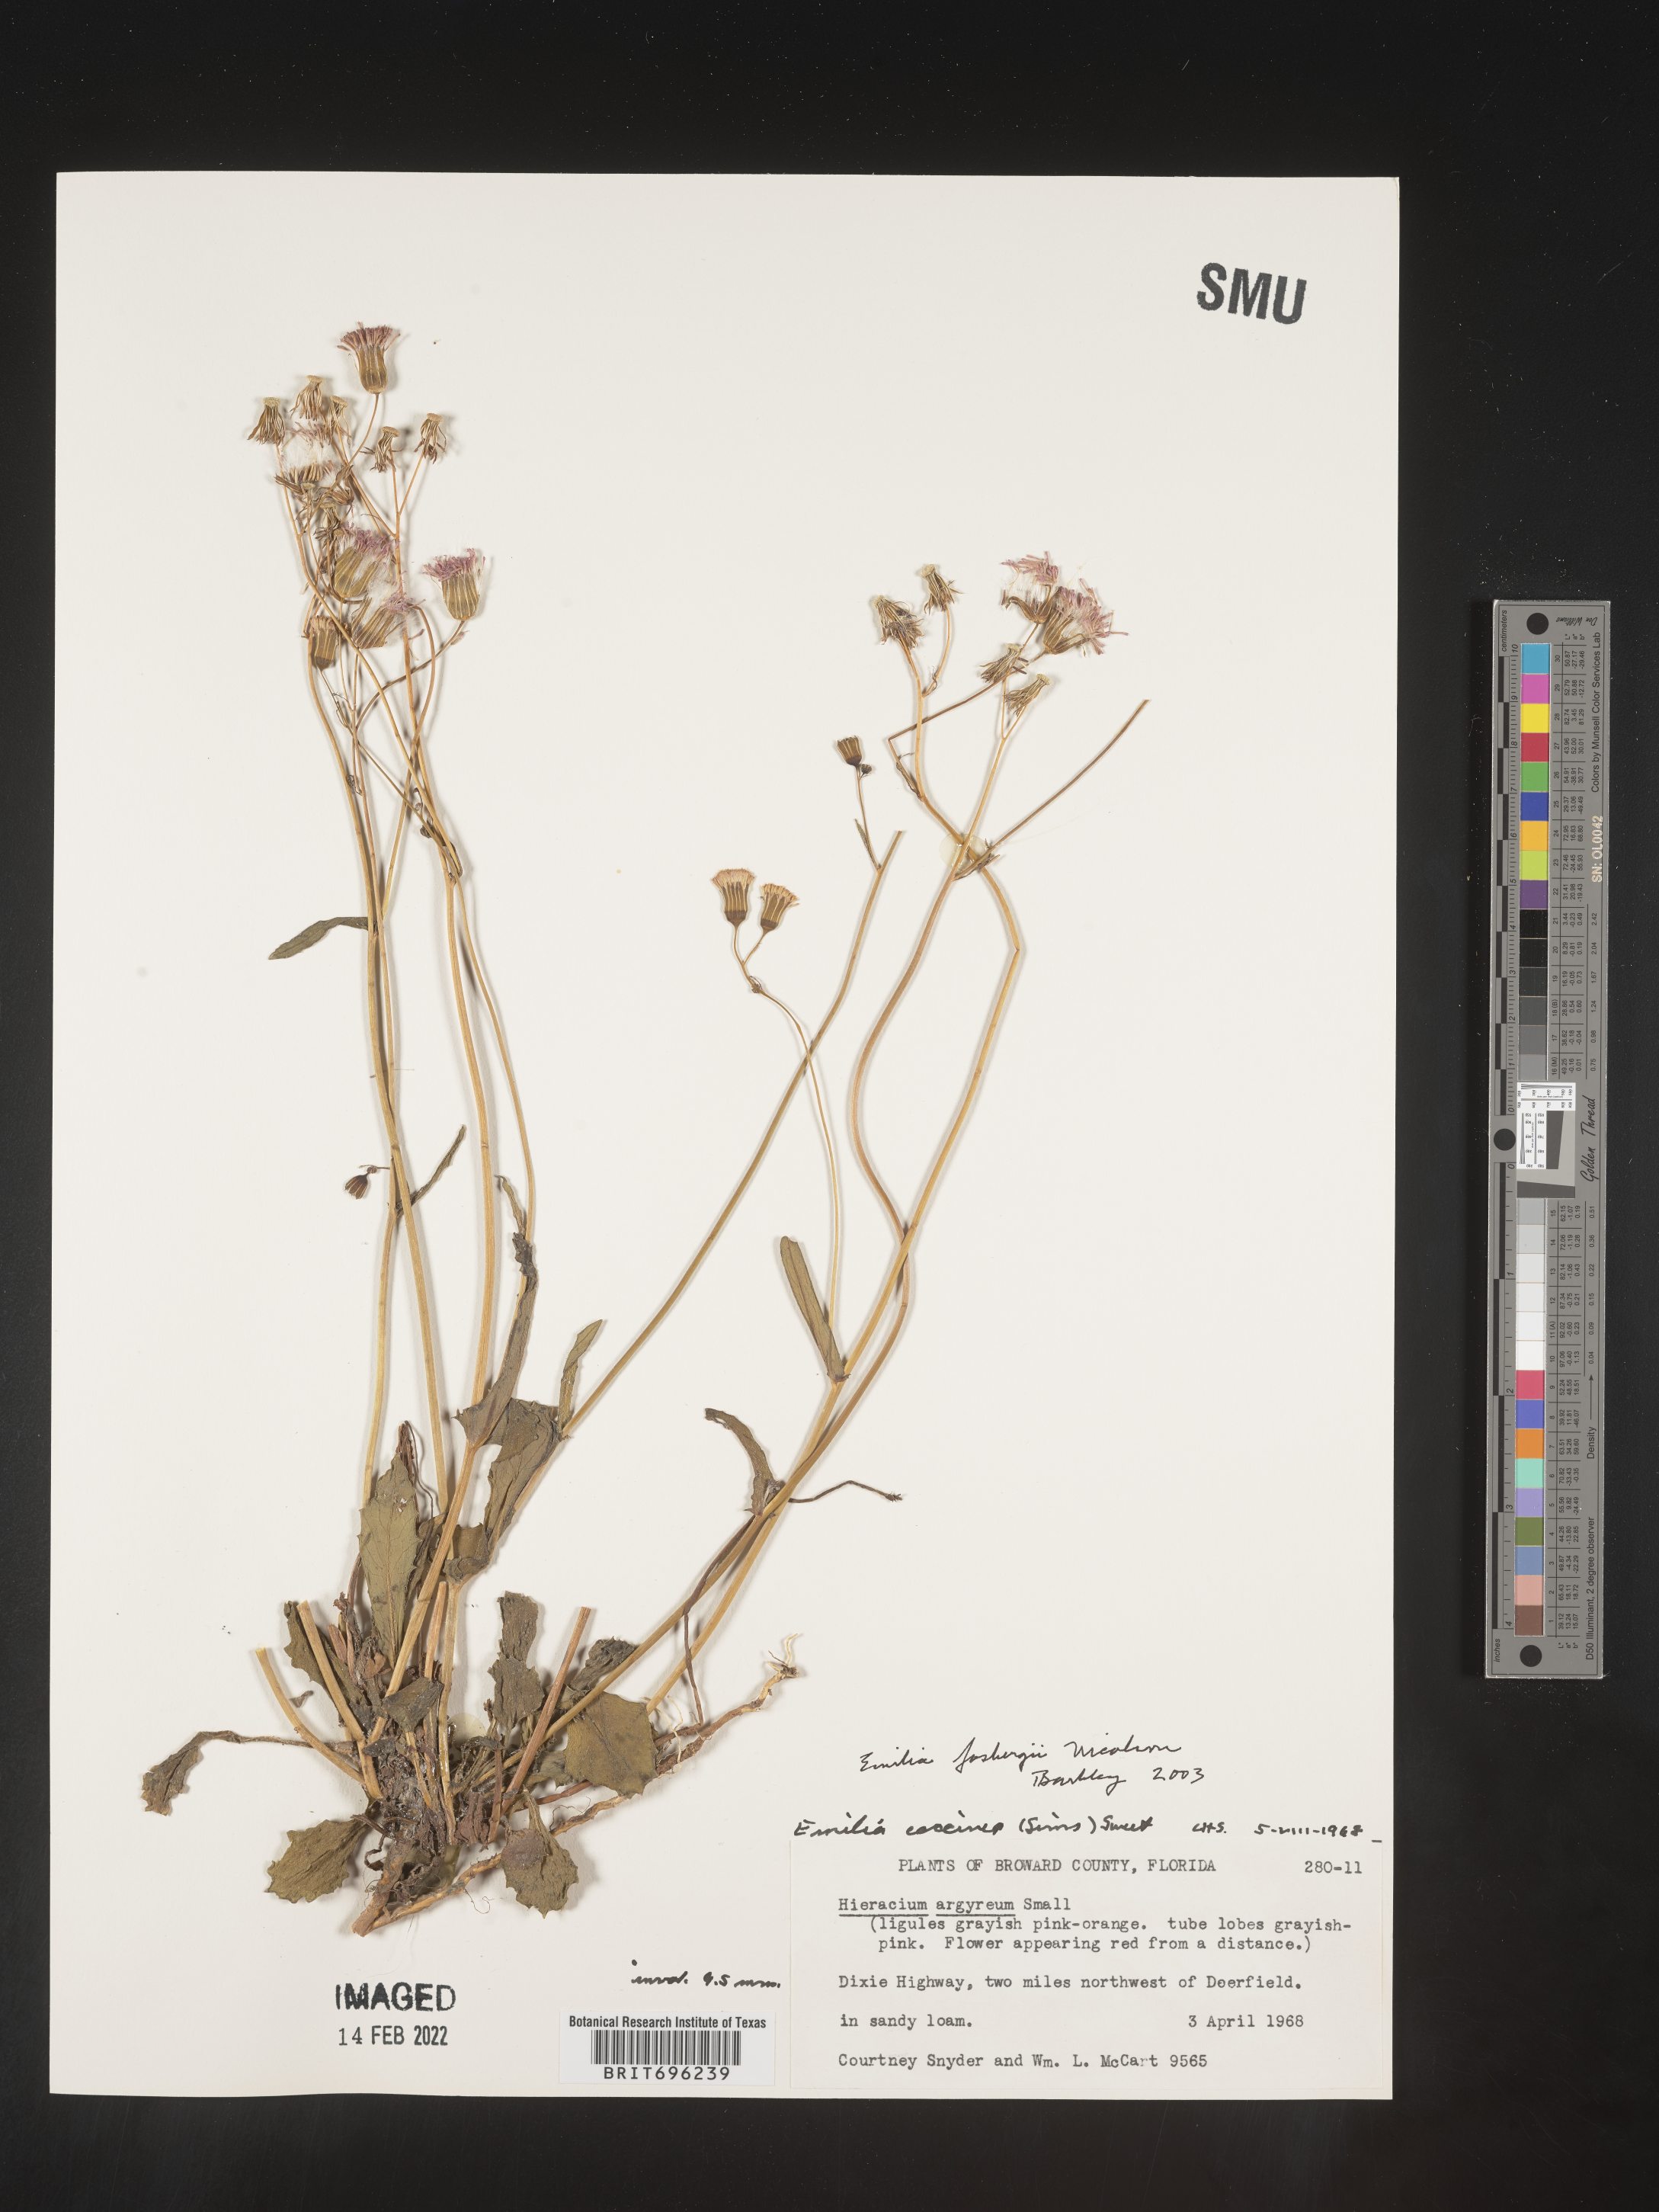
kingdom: Plantae
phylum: Tracheophyta
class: Magnoliopsida
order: Asterales
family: Asteraceae
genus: Emilia
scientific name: Emilia fosbergii
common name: Florida tasselflower
